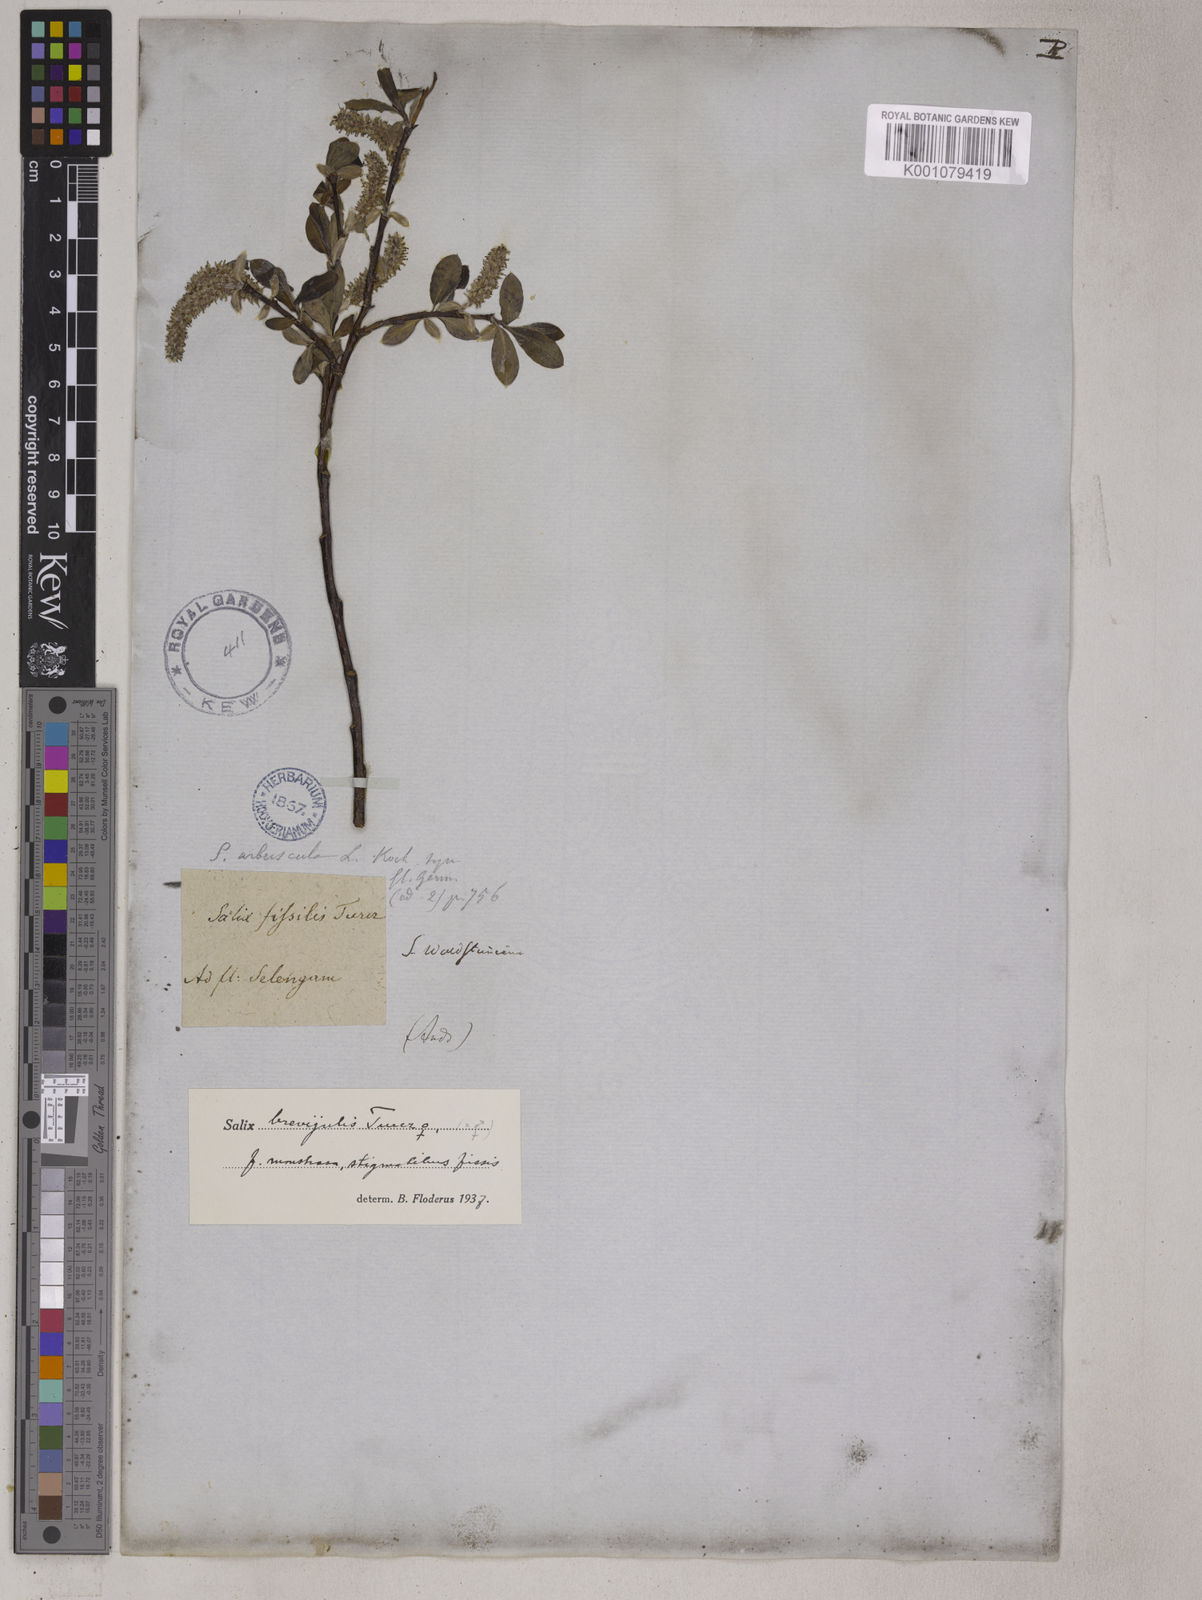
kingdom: Plantae
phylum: Tracheophyta
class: Magnoliopsida
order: Malpighiales
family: Salicaceae
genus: Salix
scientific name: Salix myrsinifolia
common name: Dark-leaved willow
